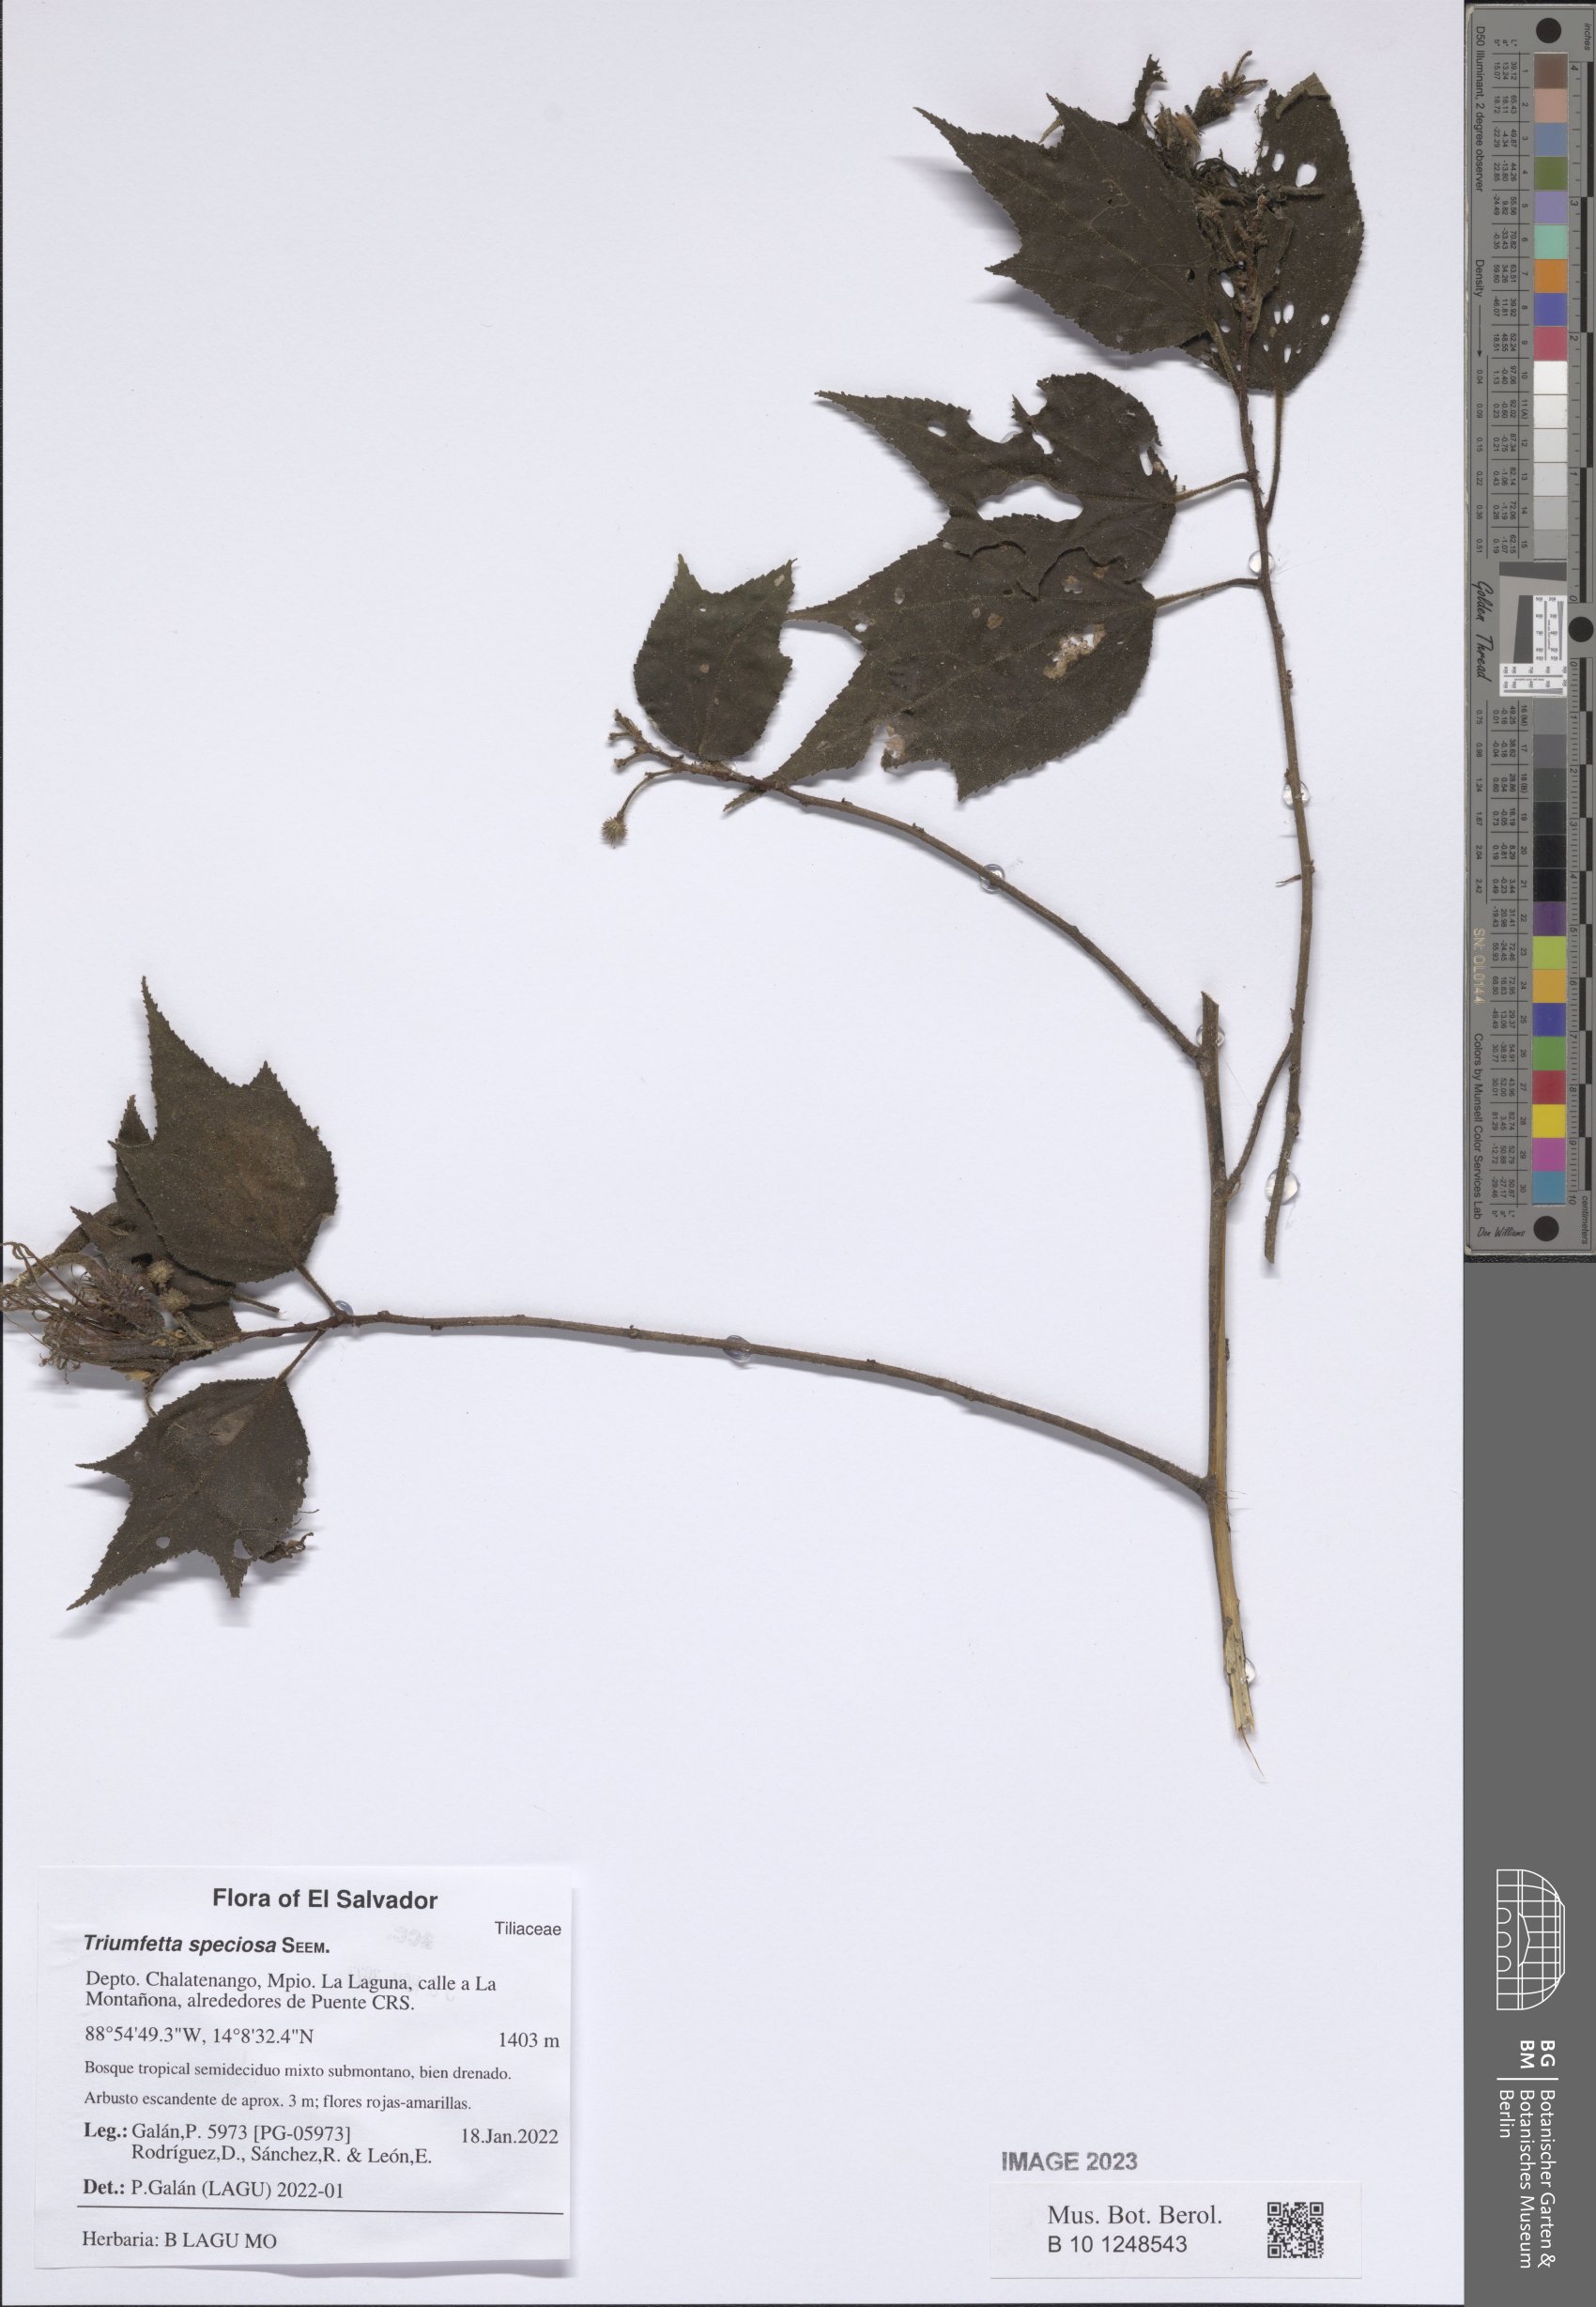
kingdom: Plantae
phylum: Tracheophyta
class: Magnoliopsida
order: Malvales
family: Malvaceae
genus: Triumfetta
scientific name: Triumfetta speciosa
